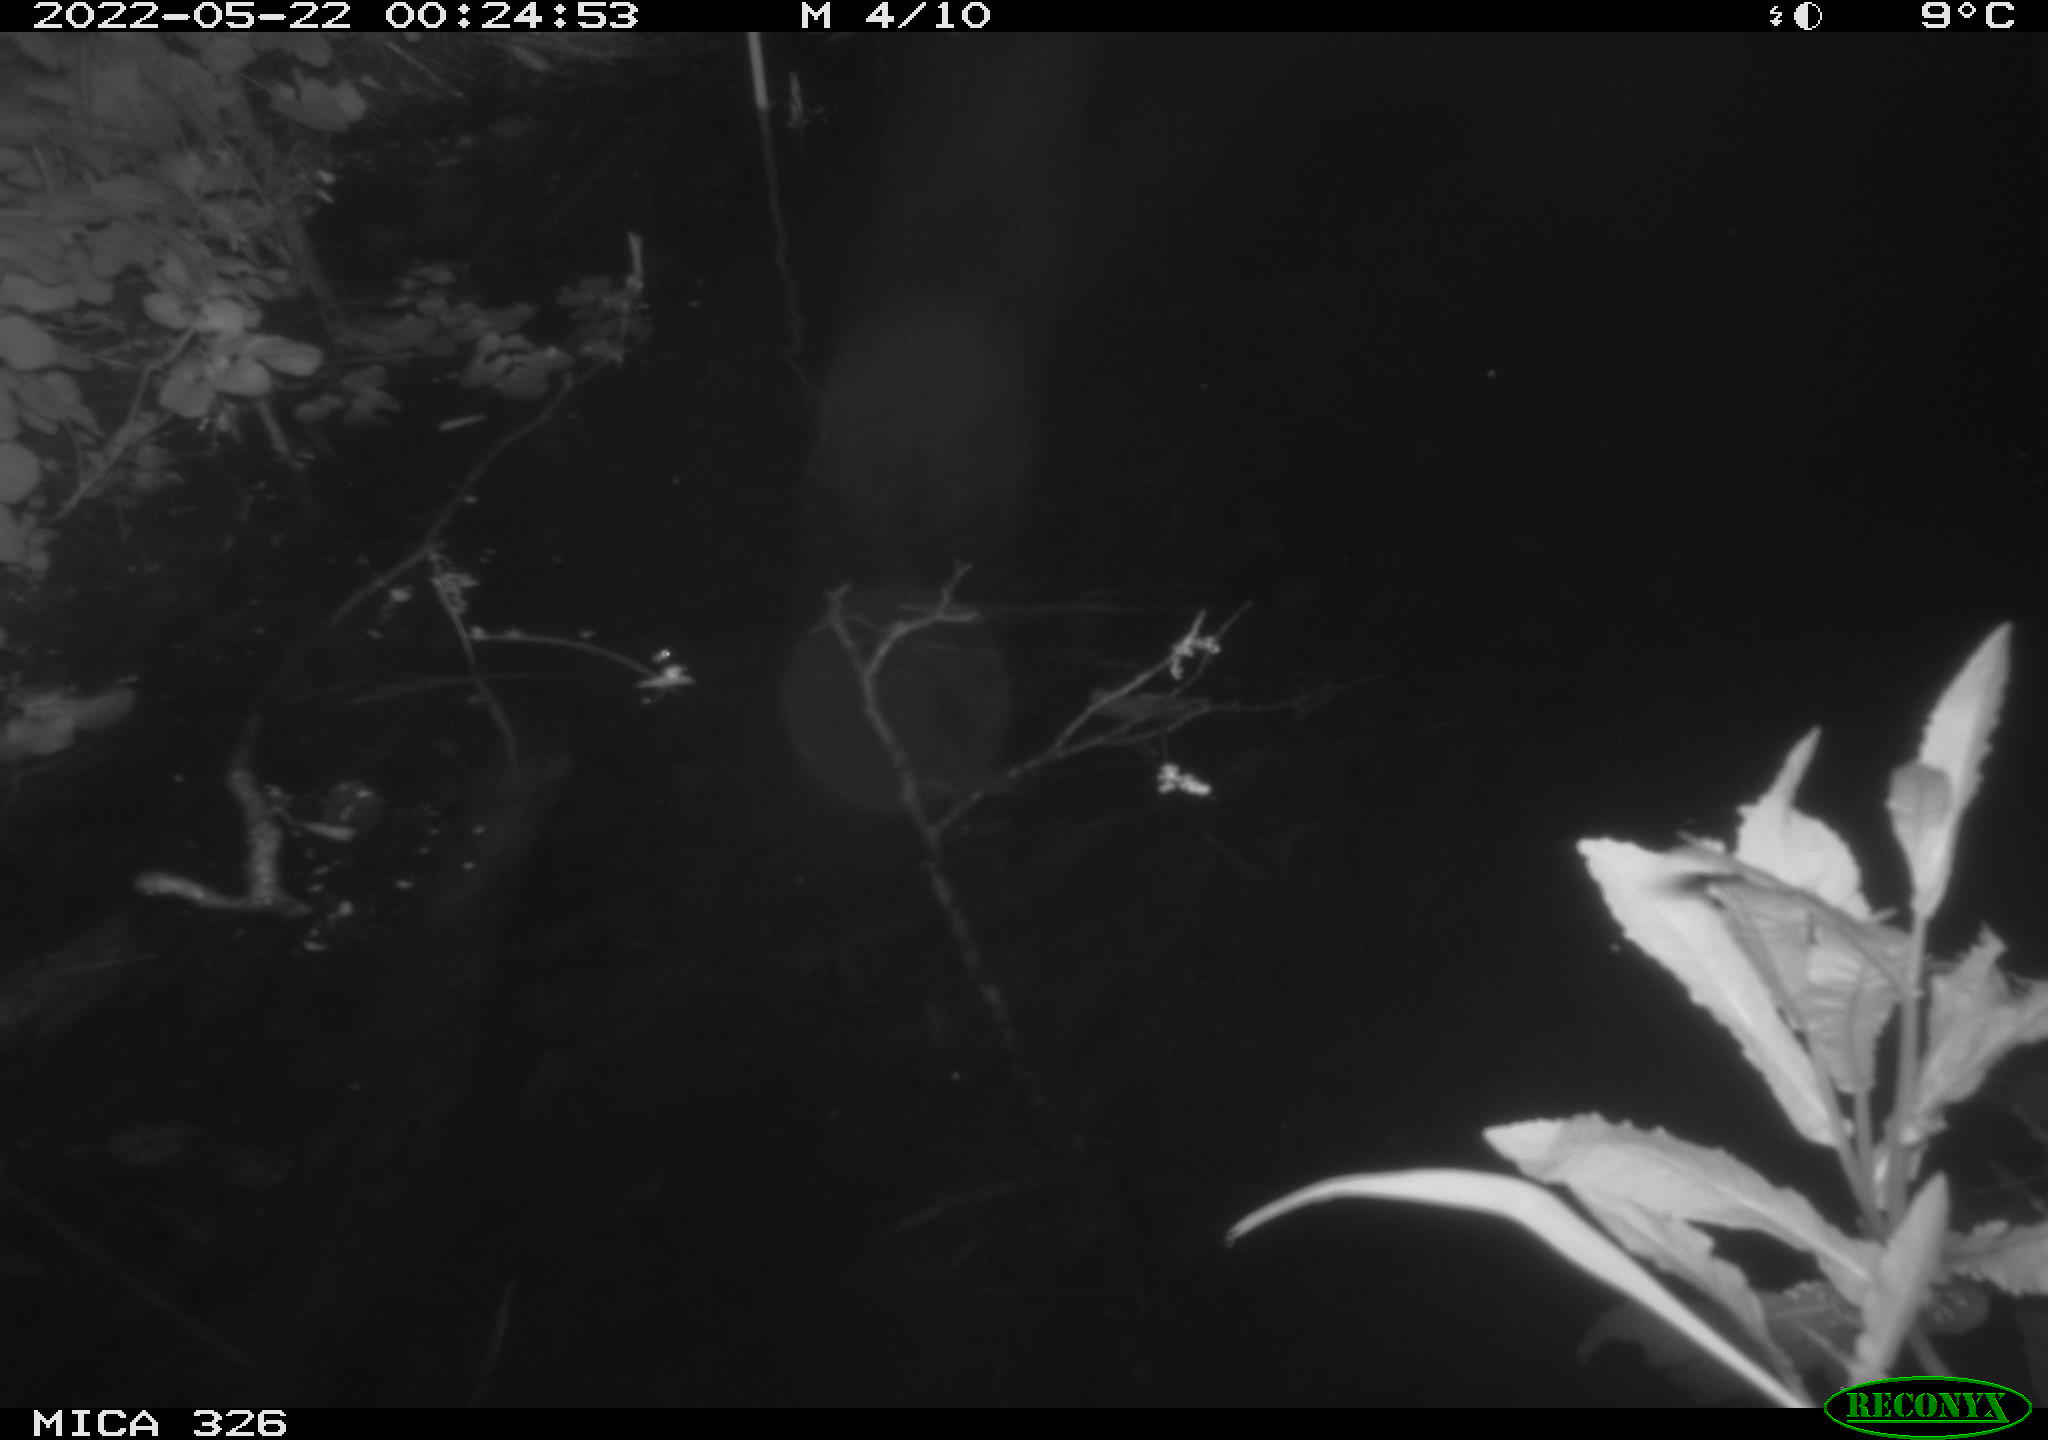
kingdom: Animalia
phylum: Chordata
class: Mammalia
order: Rodentia
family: Muridae
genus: Rattus
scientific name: Rattus norvegicus
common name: Brown rat
